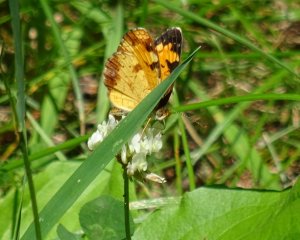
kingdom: Animalia
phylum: Arthropoda
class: Insecta
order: Lepidoptera
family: Nymphalidae
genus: Phyciodes
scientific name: Phyciodes tharos
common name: Pearl Crescent
